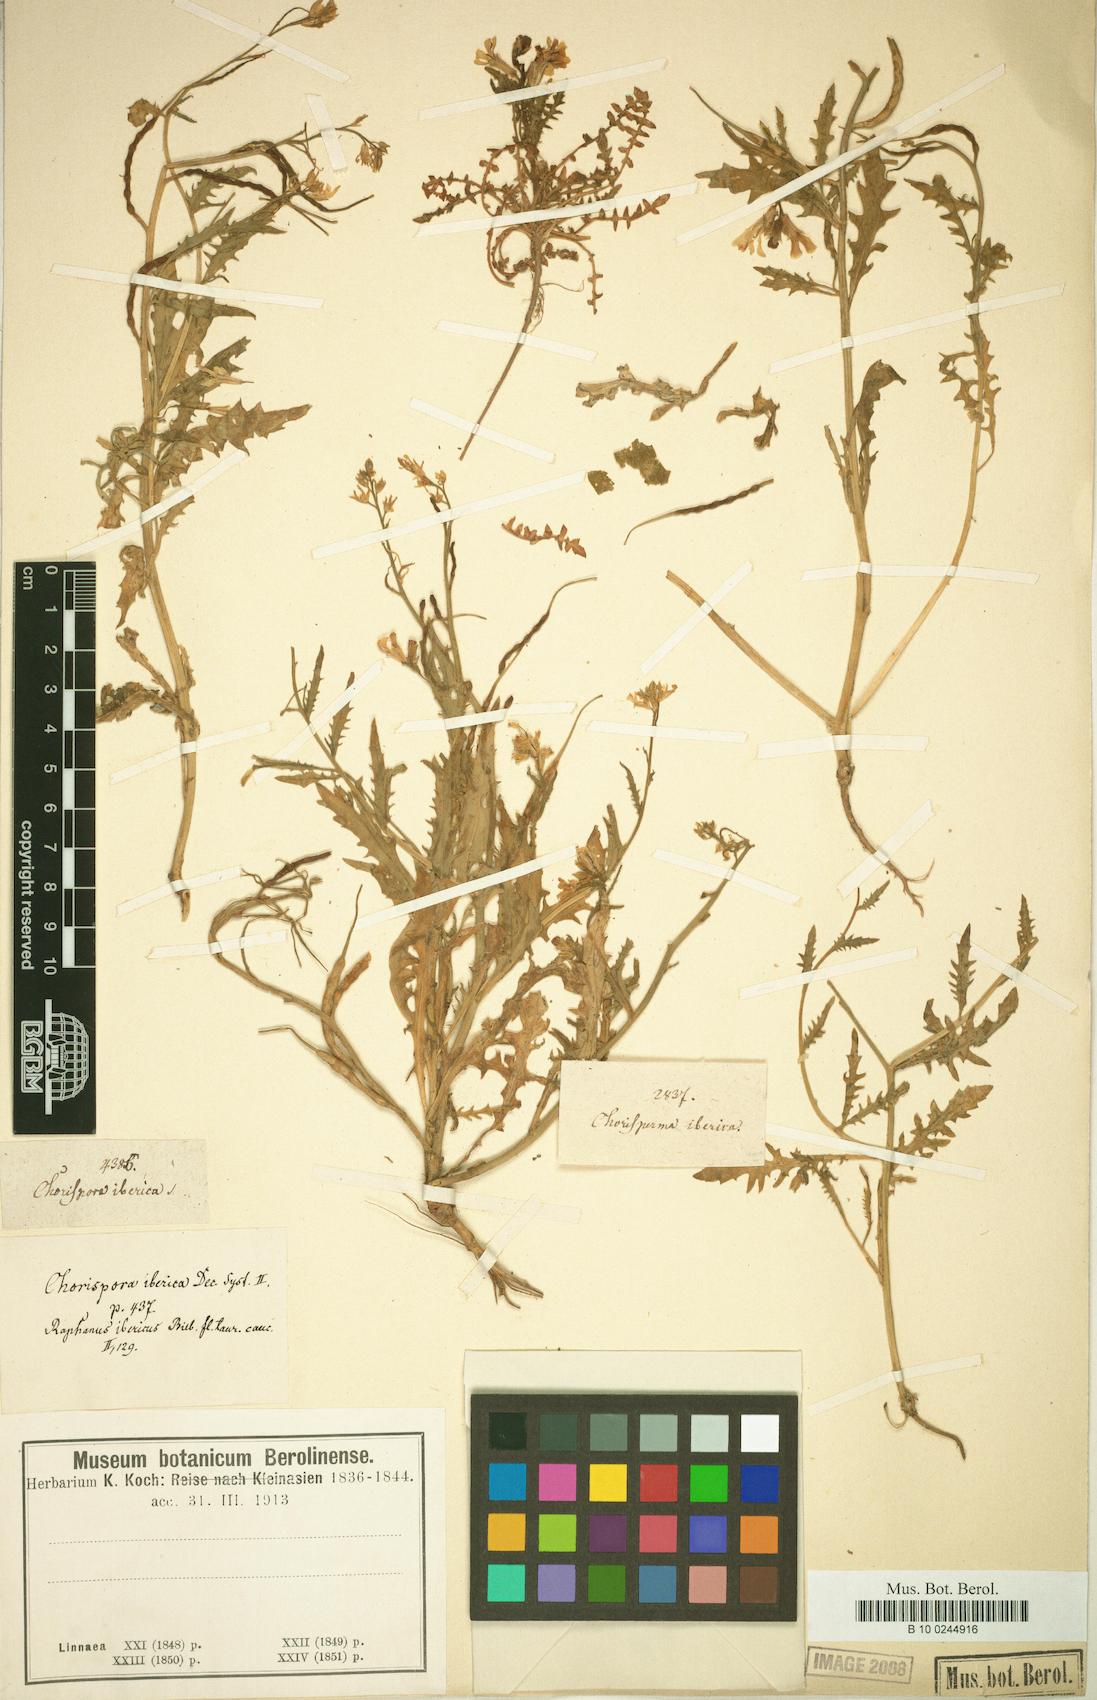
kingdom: Plantae
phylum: Tracheophyta
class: Magnoliopsida
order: Brassicales
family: Brassicaceae
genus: Chorispora
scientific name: Chorispora iberica
